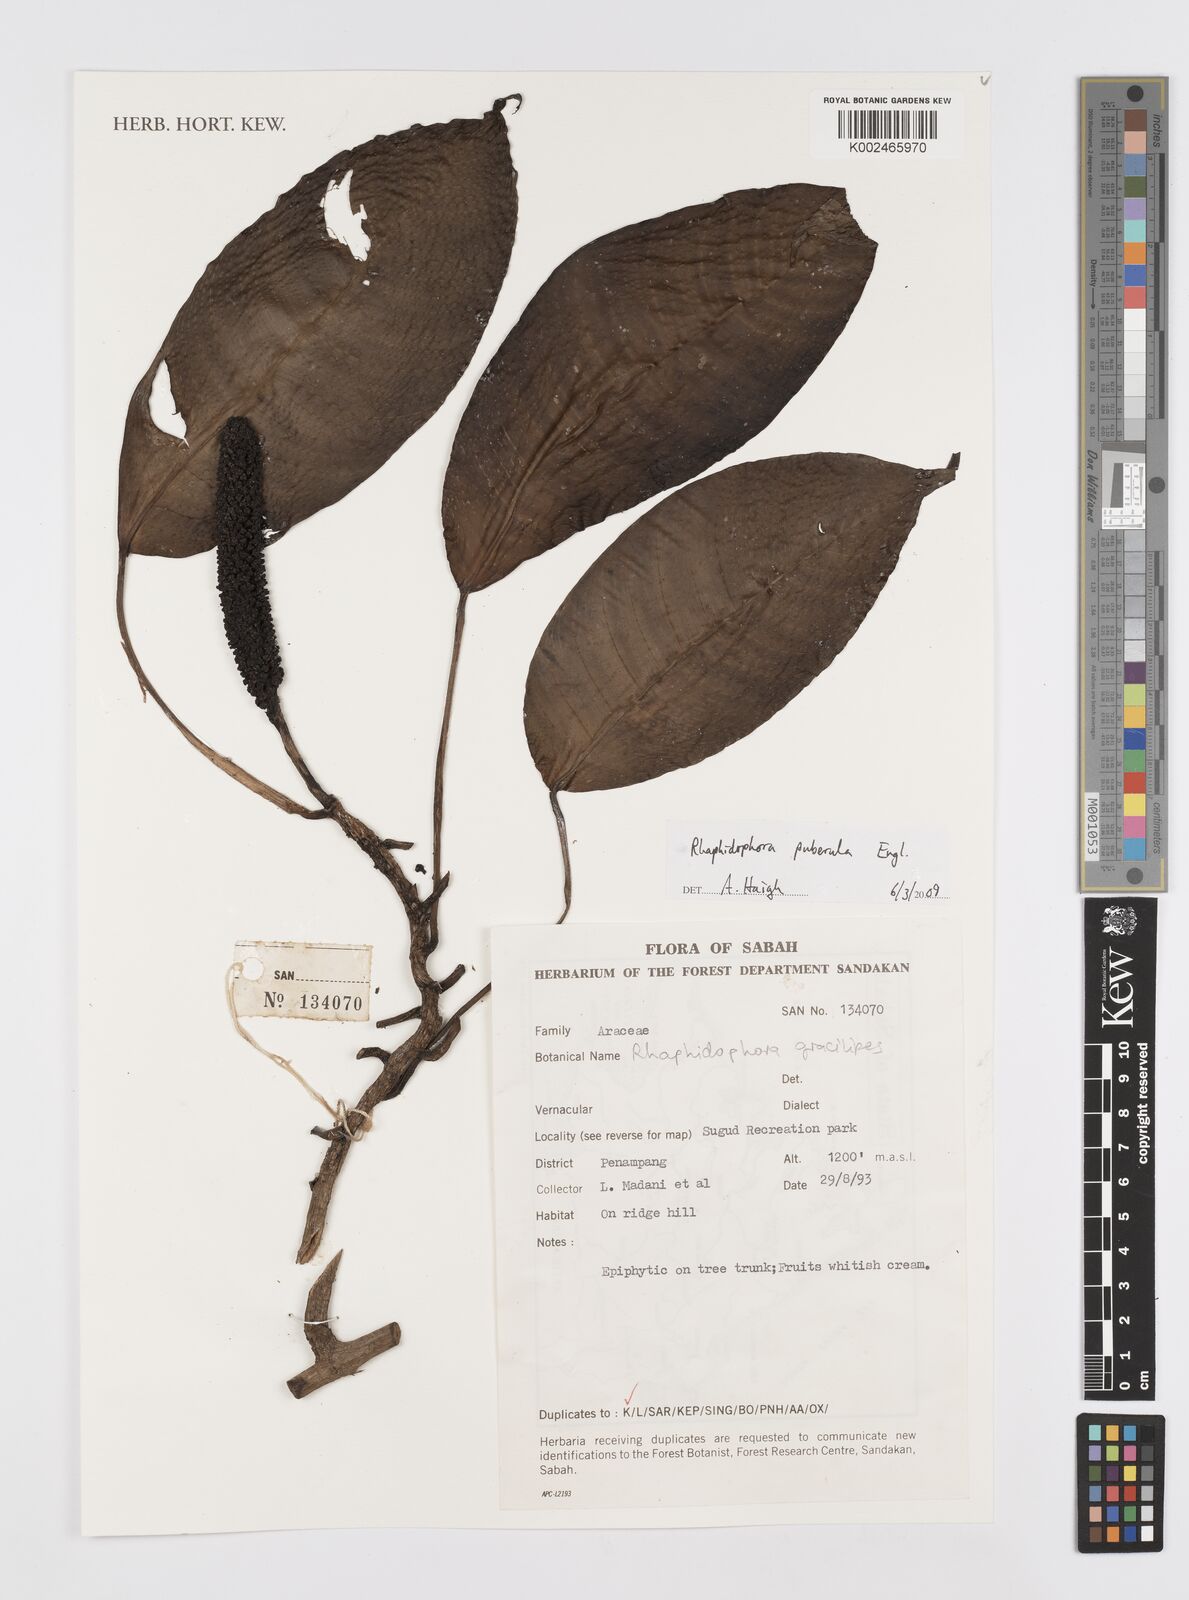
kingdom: Plantae
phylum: Tracheophyta
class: Liliopsida
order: Alismatales
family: Araceae
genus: Rhaphidophora
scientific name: Rhaphidophora puberula
